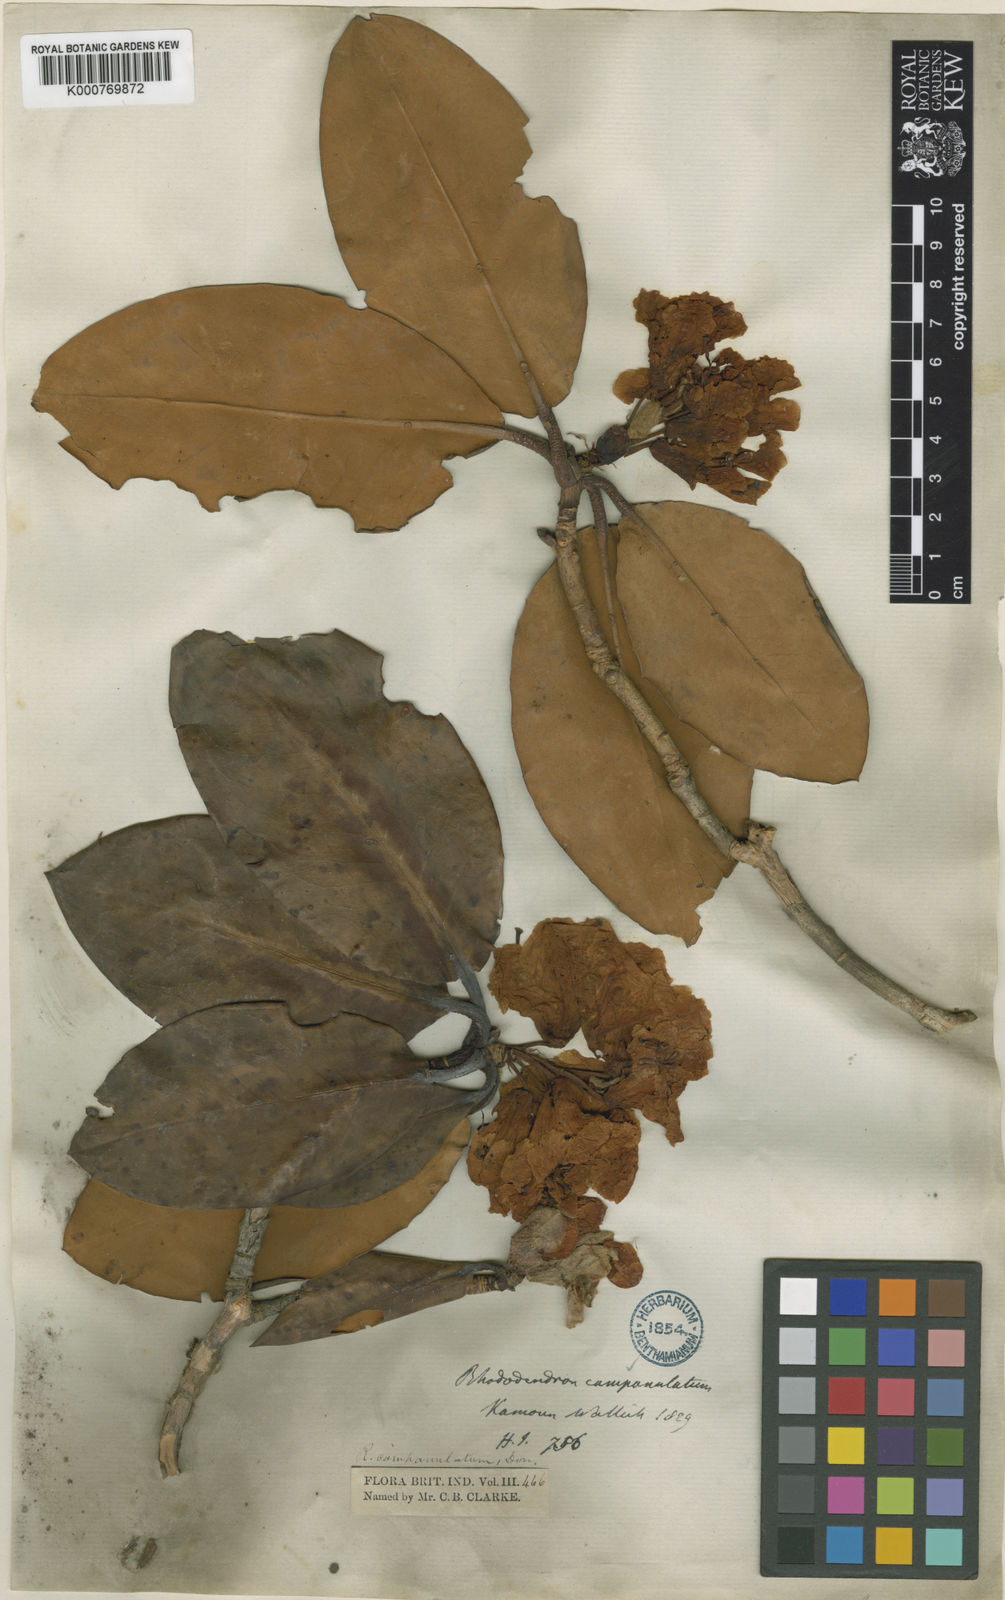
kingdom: Plantae
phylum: Tracheophyta
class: Magnoliopsida
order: Ericales
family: Ericaceae
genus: Rhododendron
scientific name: Rhododendron
